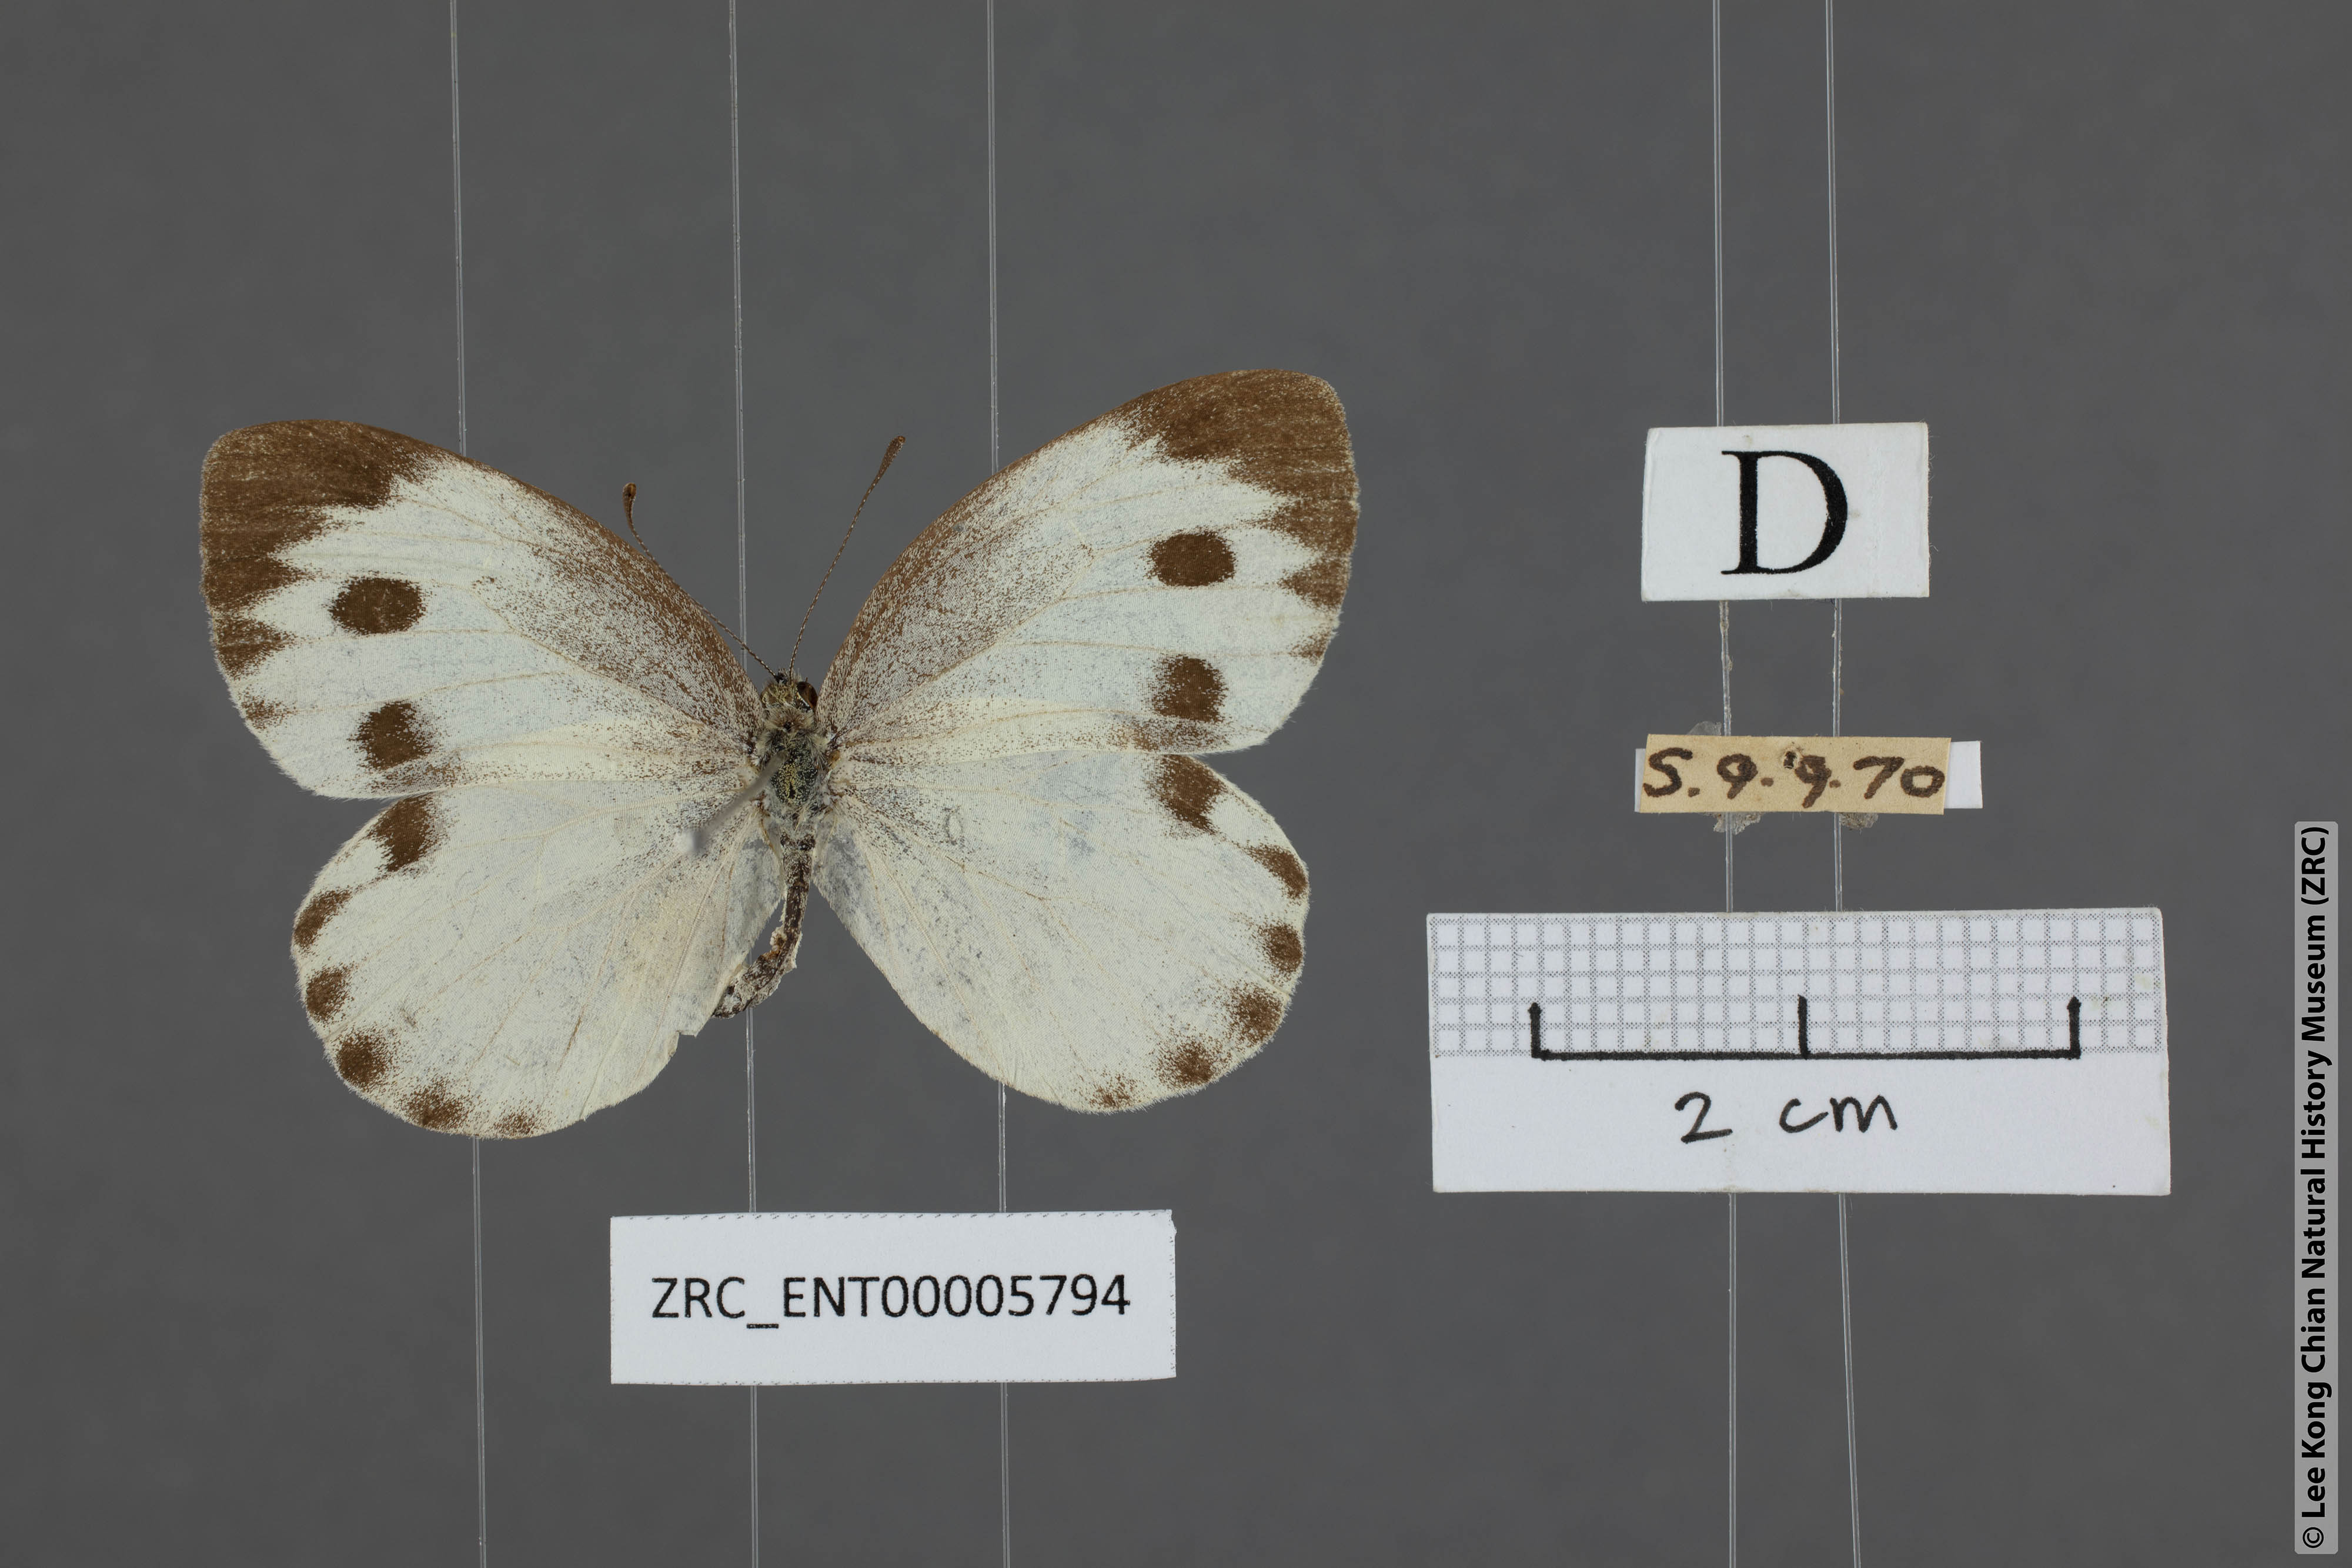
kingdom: Animalia
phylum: Arthropoda
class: Insecta
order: Lepidoptera
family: Pieridae
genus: Pieris
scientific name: Pieris canidia
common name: Indian cabbage white
